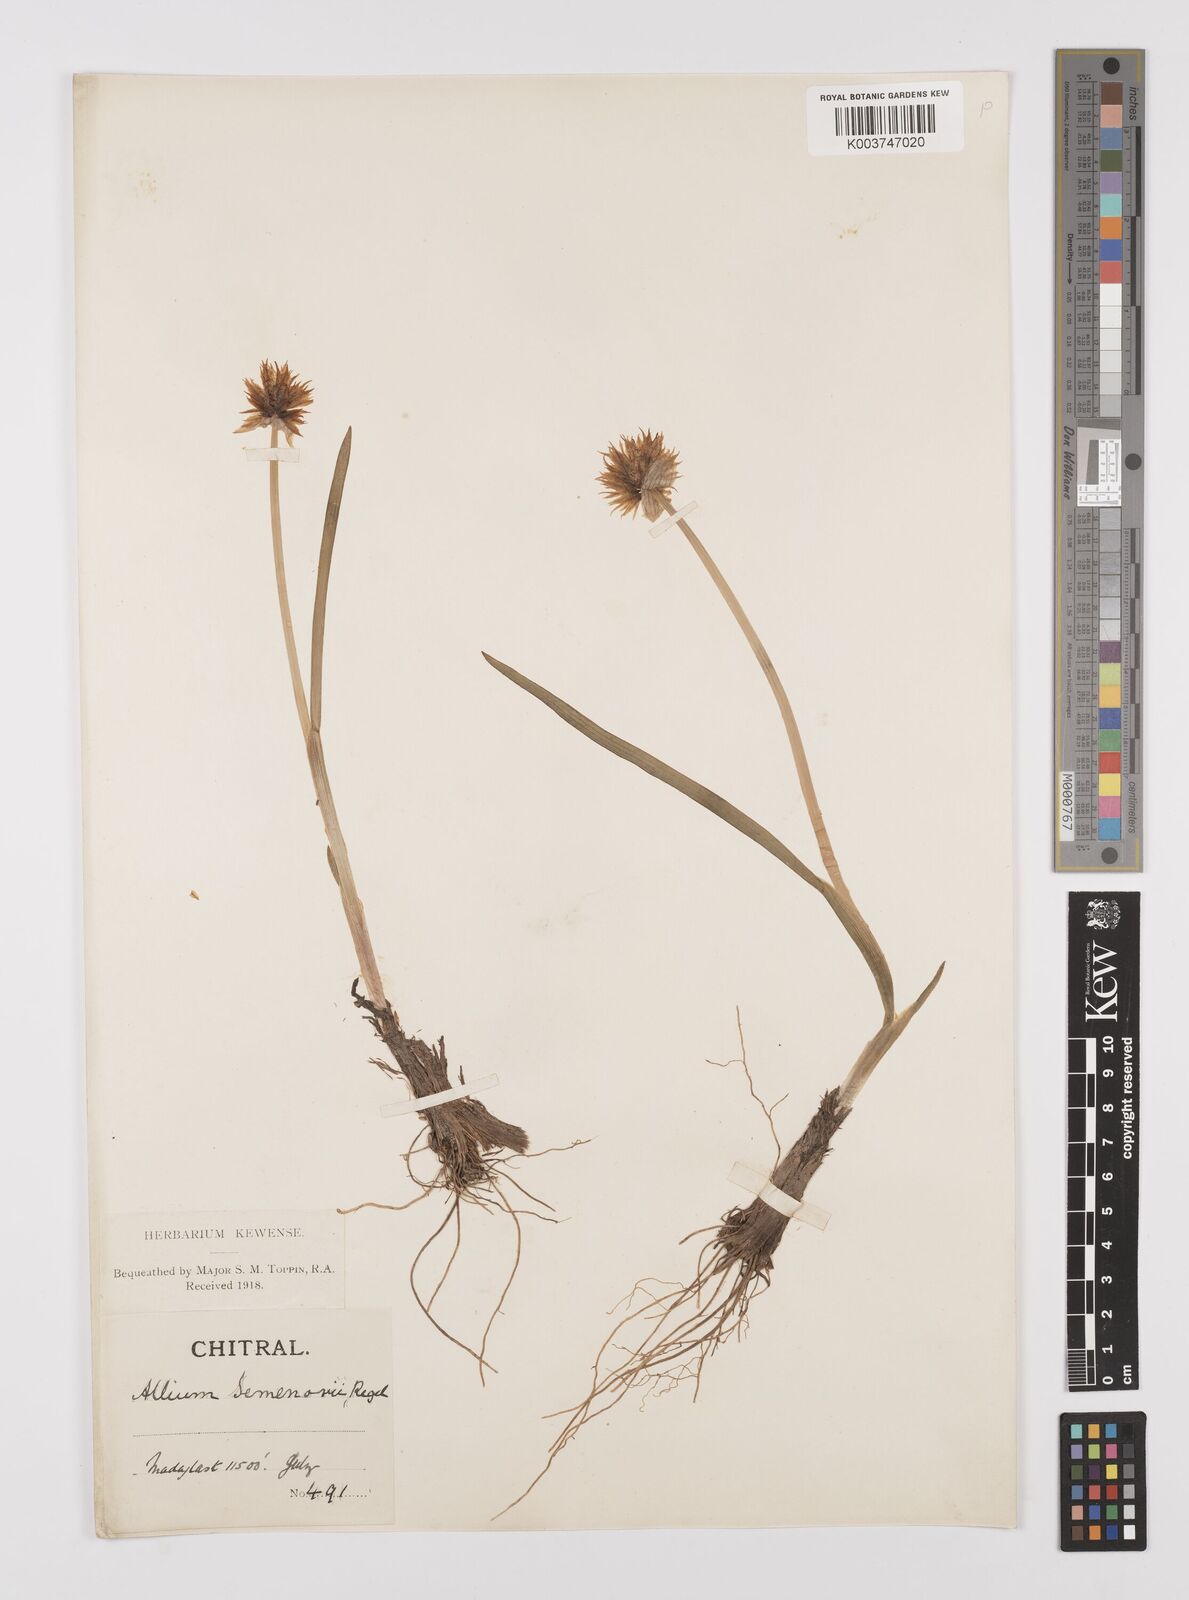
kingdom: Plantae
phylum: Tracheophyta
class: Liliopsida
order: Asparagales
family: Amaryllidaceae
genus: Allium
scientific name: Allium semenovii
